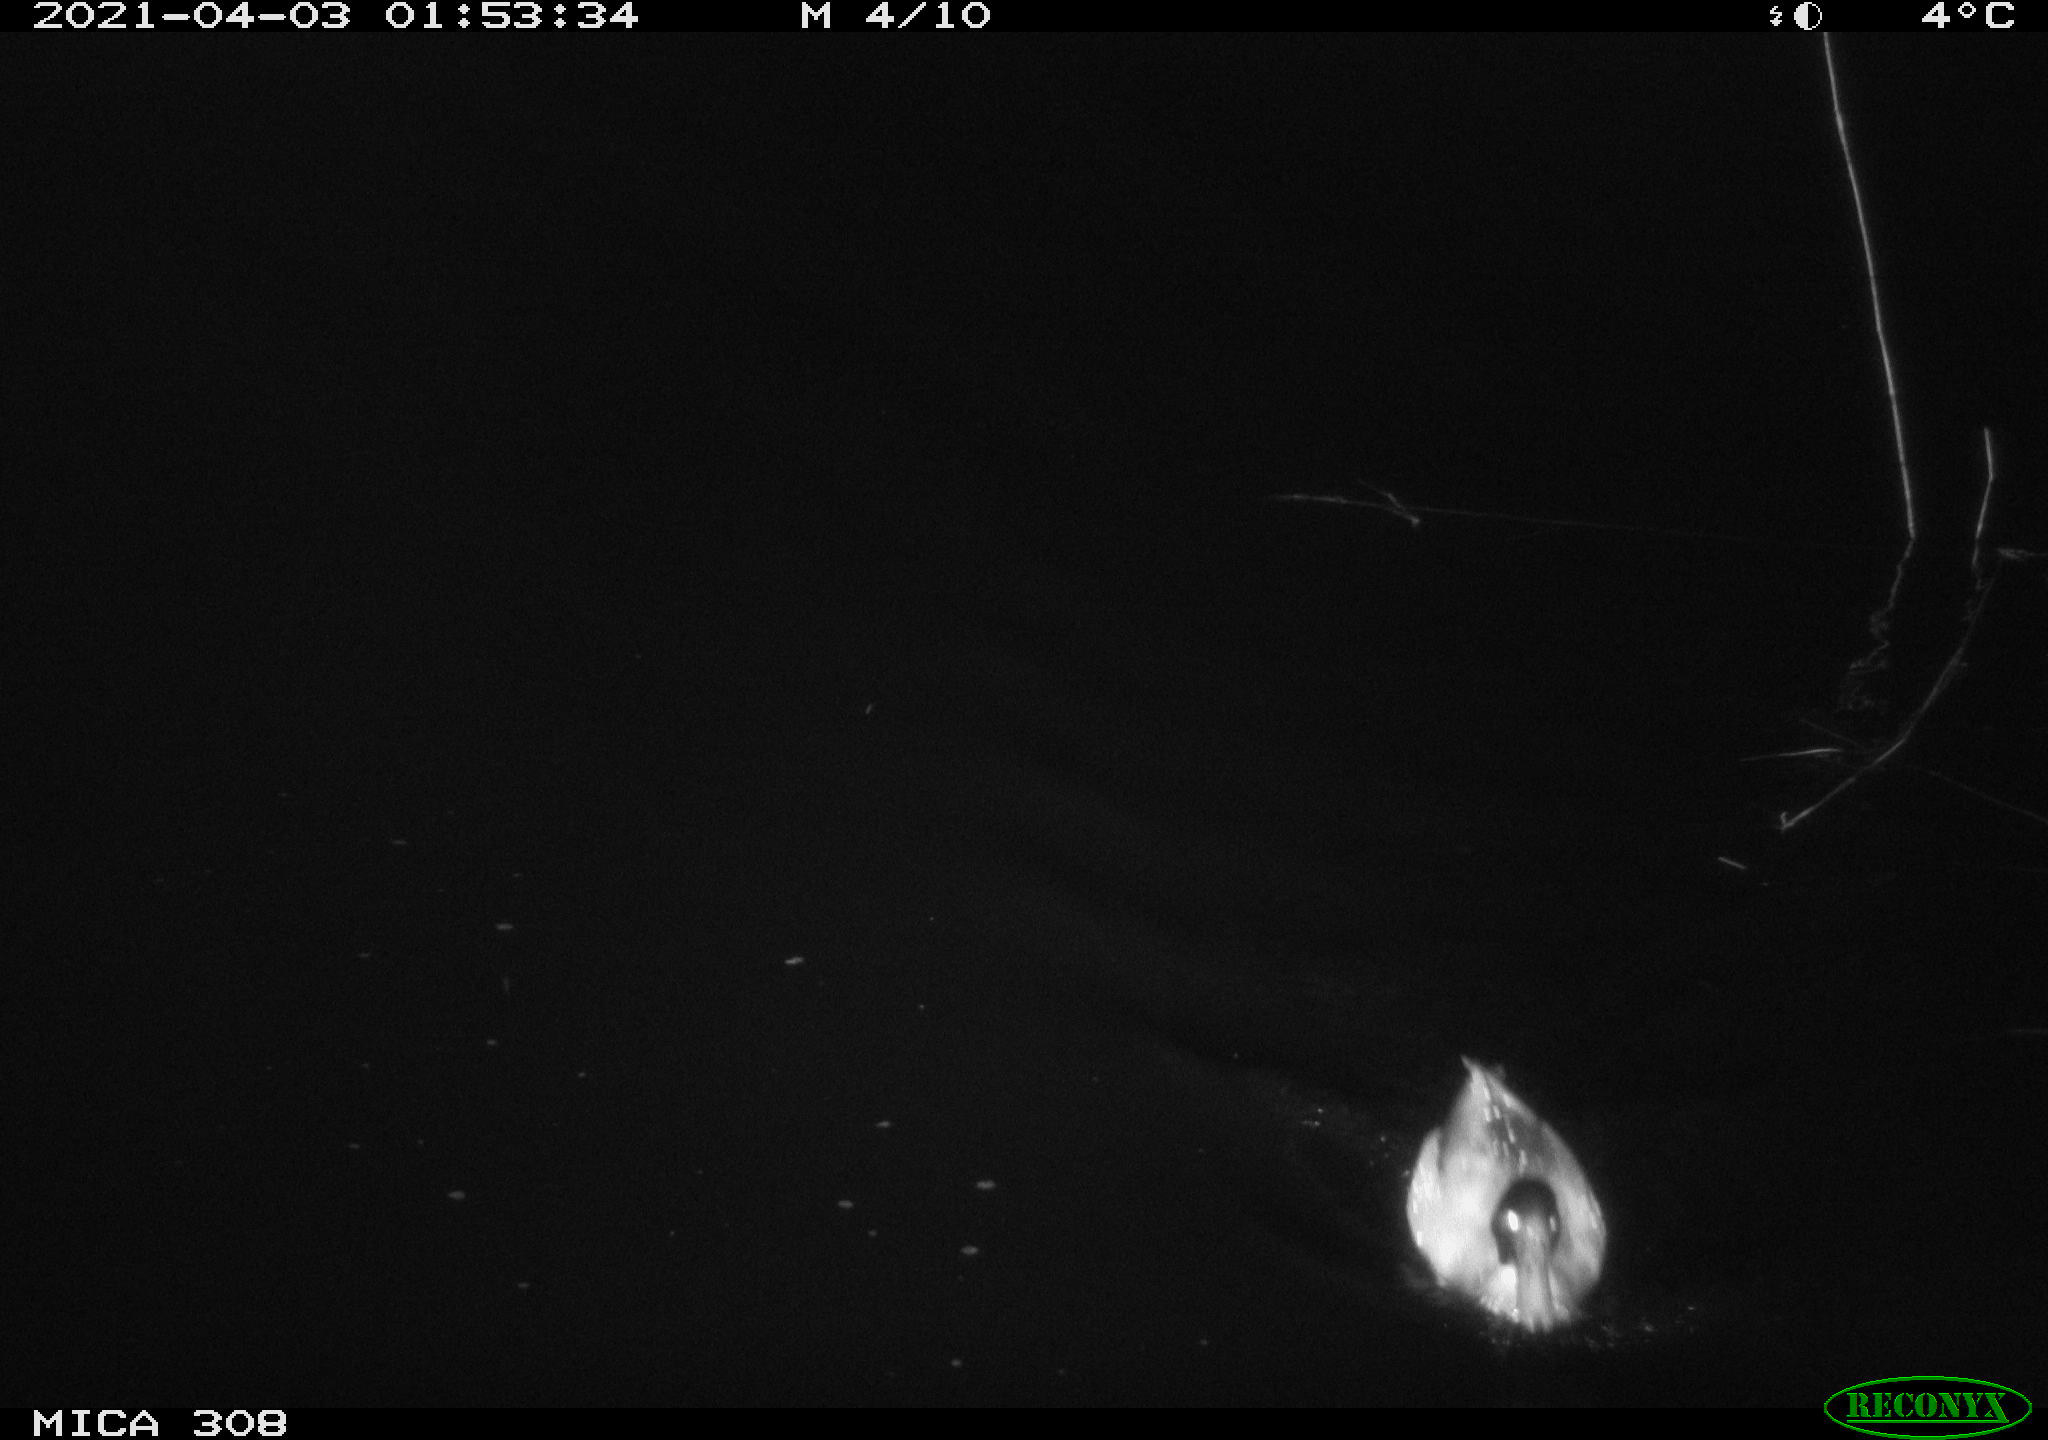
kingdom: Animalia
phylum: Chordata
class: Aves
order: Anseriformes
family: Anatidae
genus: Anas
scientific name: Anas platyrhynchos
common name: Mallard
